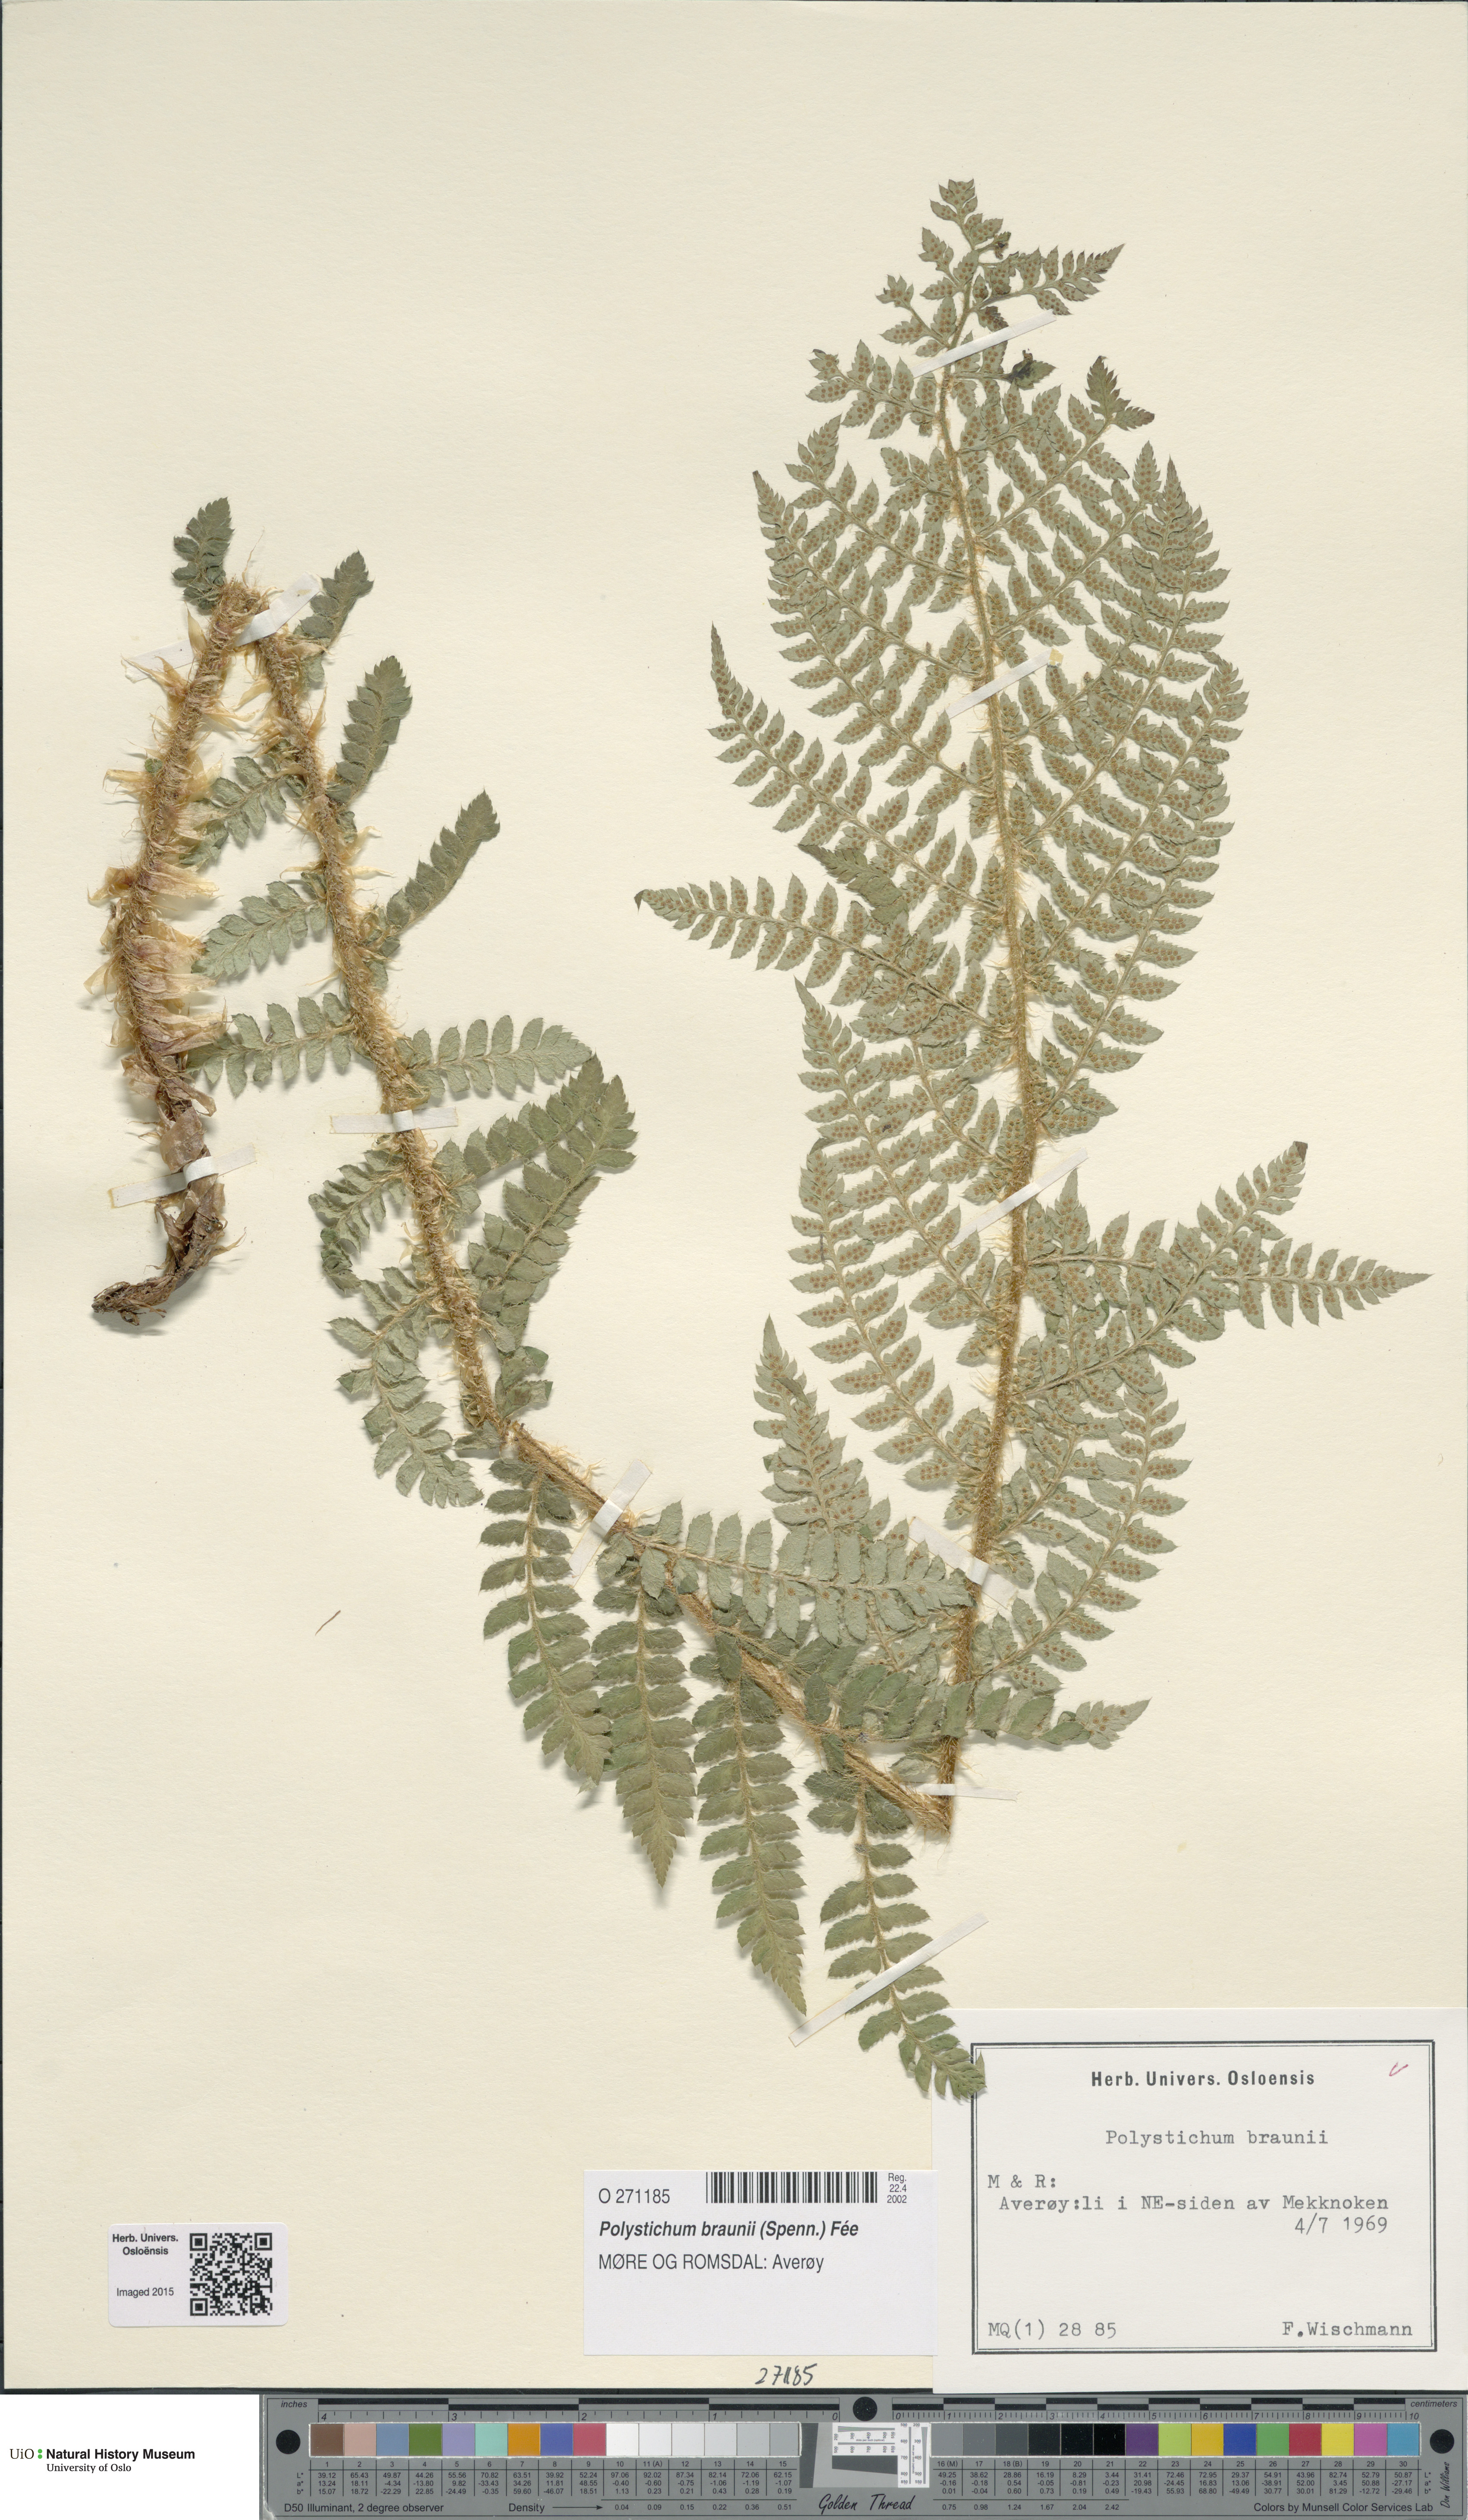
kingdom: Plantae
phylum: Tracheophyta
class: Polypodiopsida
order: Polypodiales
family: Dryopteridaceae
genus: Polystichum
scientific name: Polystichum braunii
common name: Braun's holly fern
